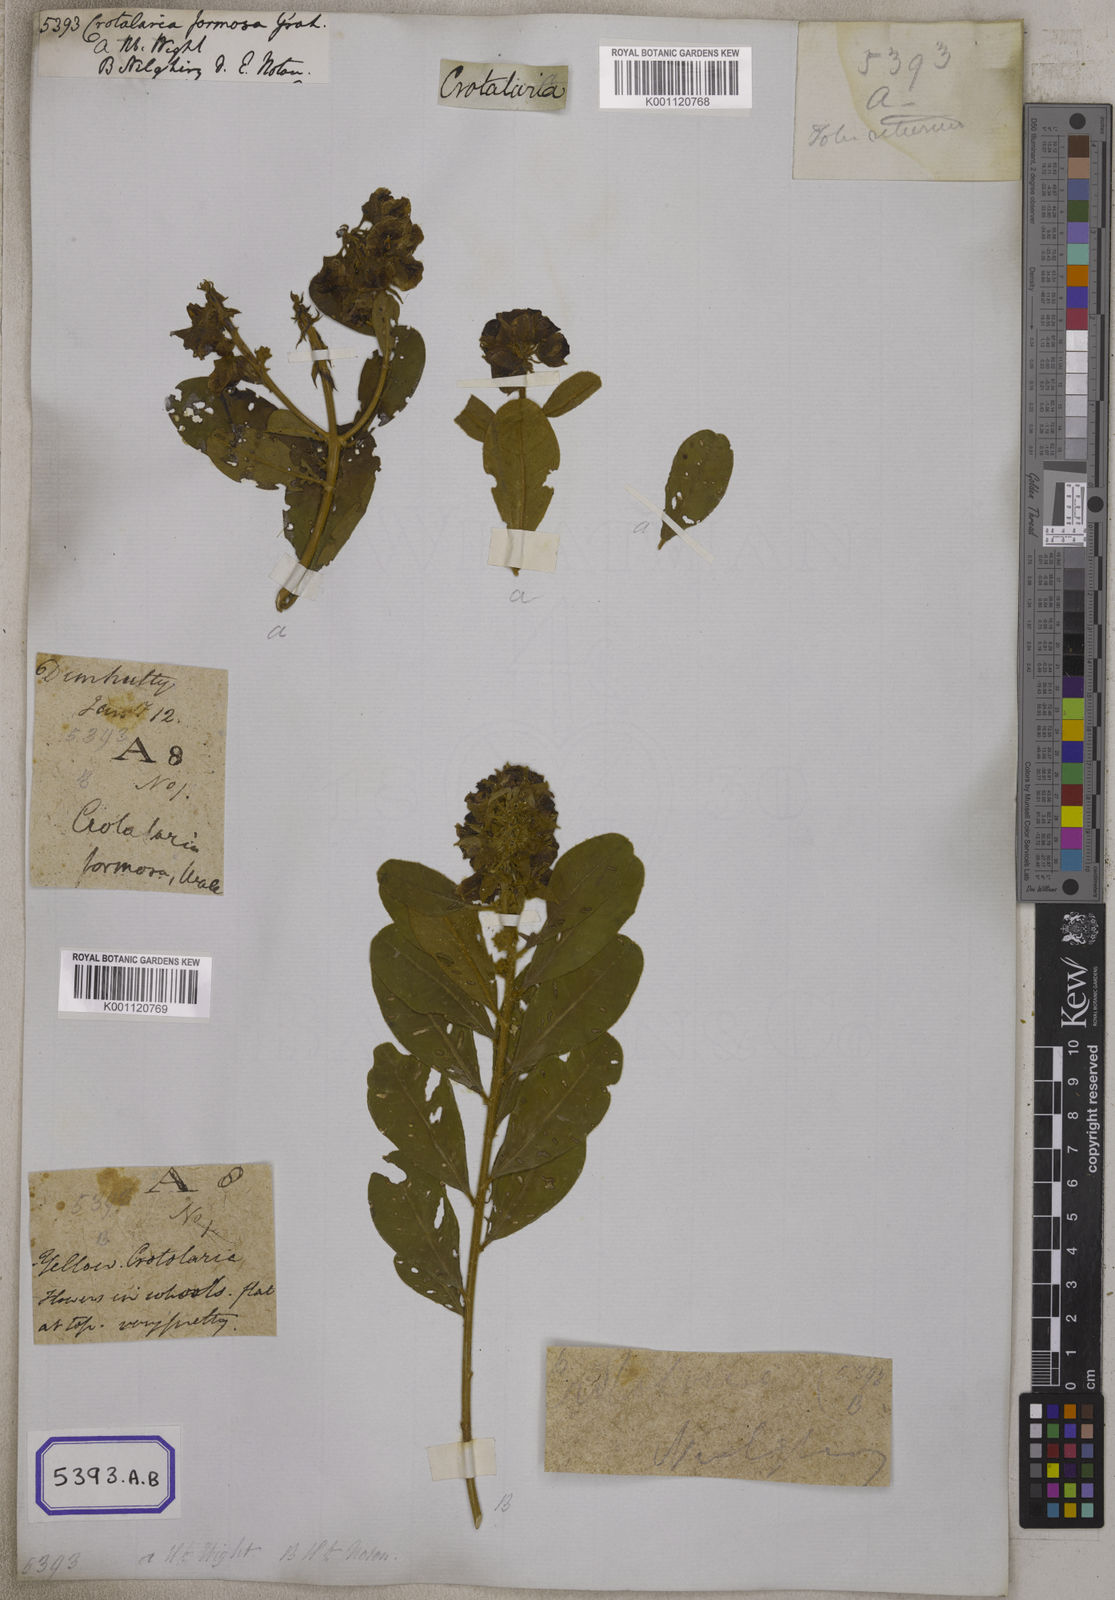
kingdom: Plantae
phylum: Tracheophyta
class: Magnoliopsida
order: Fabales
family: Fabaceae
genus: Crotalaria
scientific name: Crotalaria
